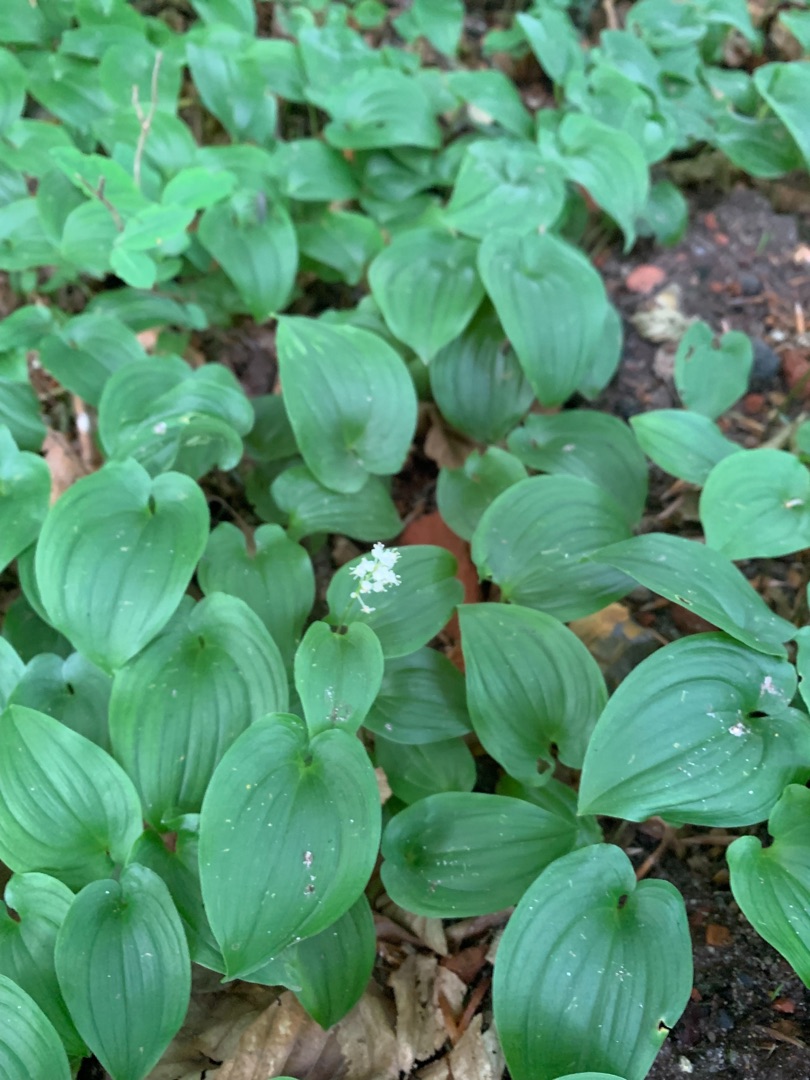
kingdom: Plantae
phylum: Tracheophyta
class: Liliopsida
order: Asparagales
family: Asparagaceae
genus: Maianthemum
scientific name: Maianthemum bifolium
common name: Majblomst
